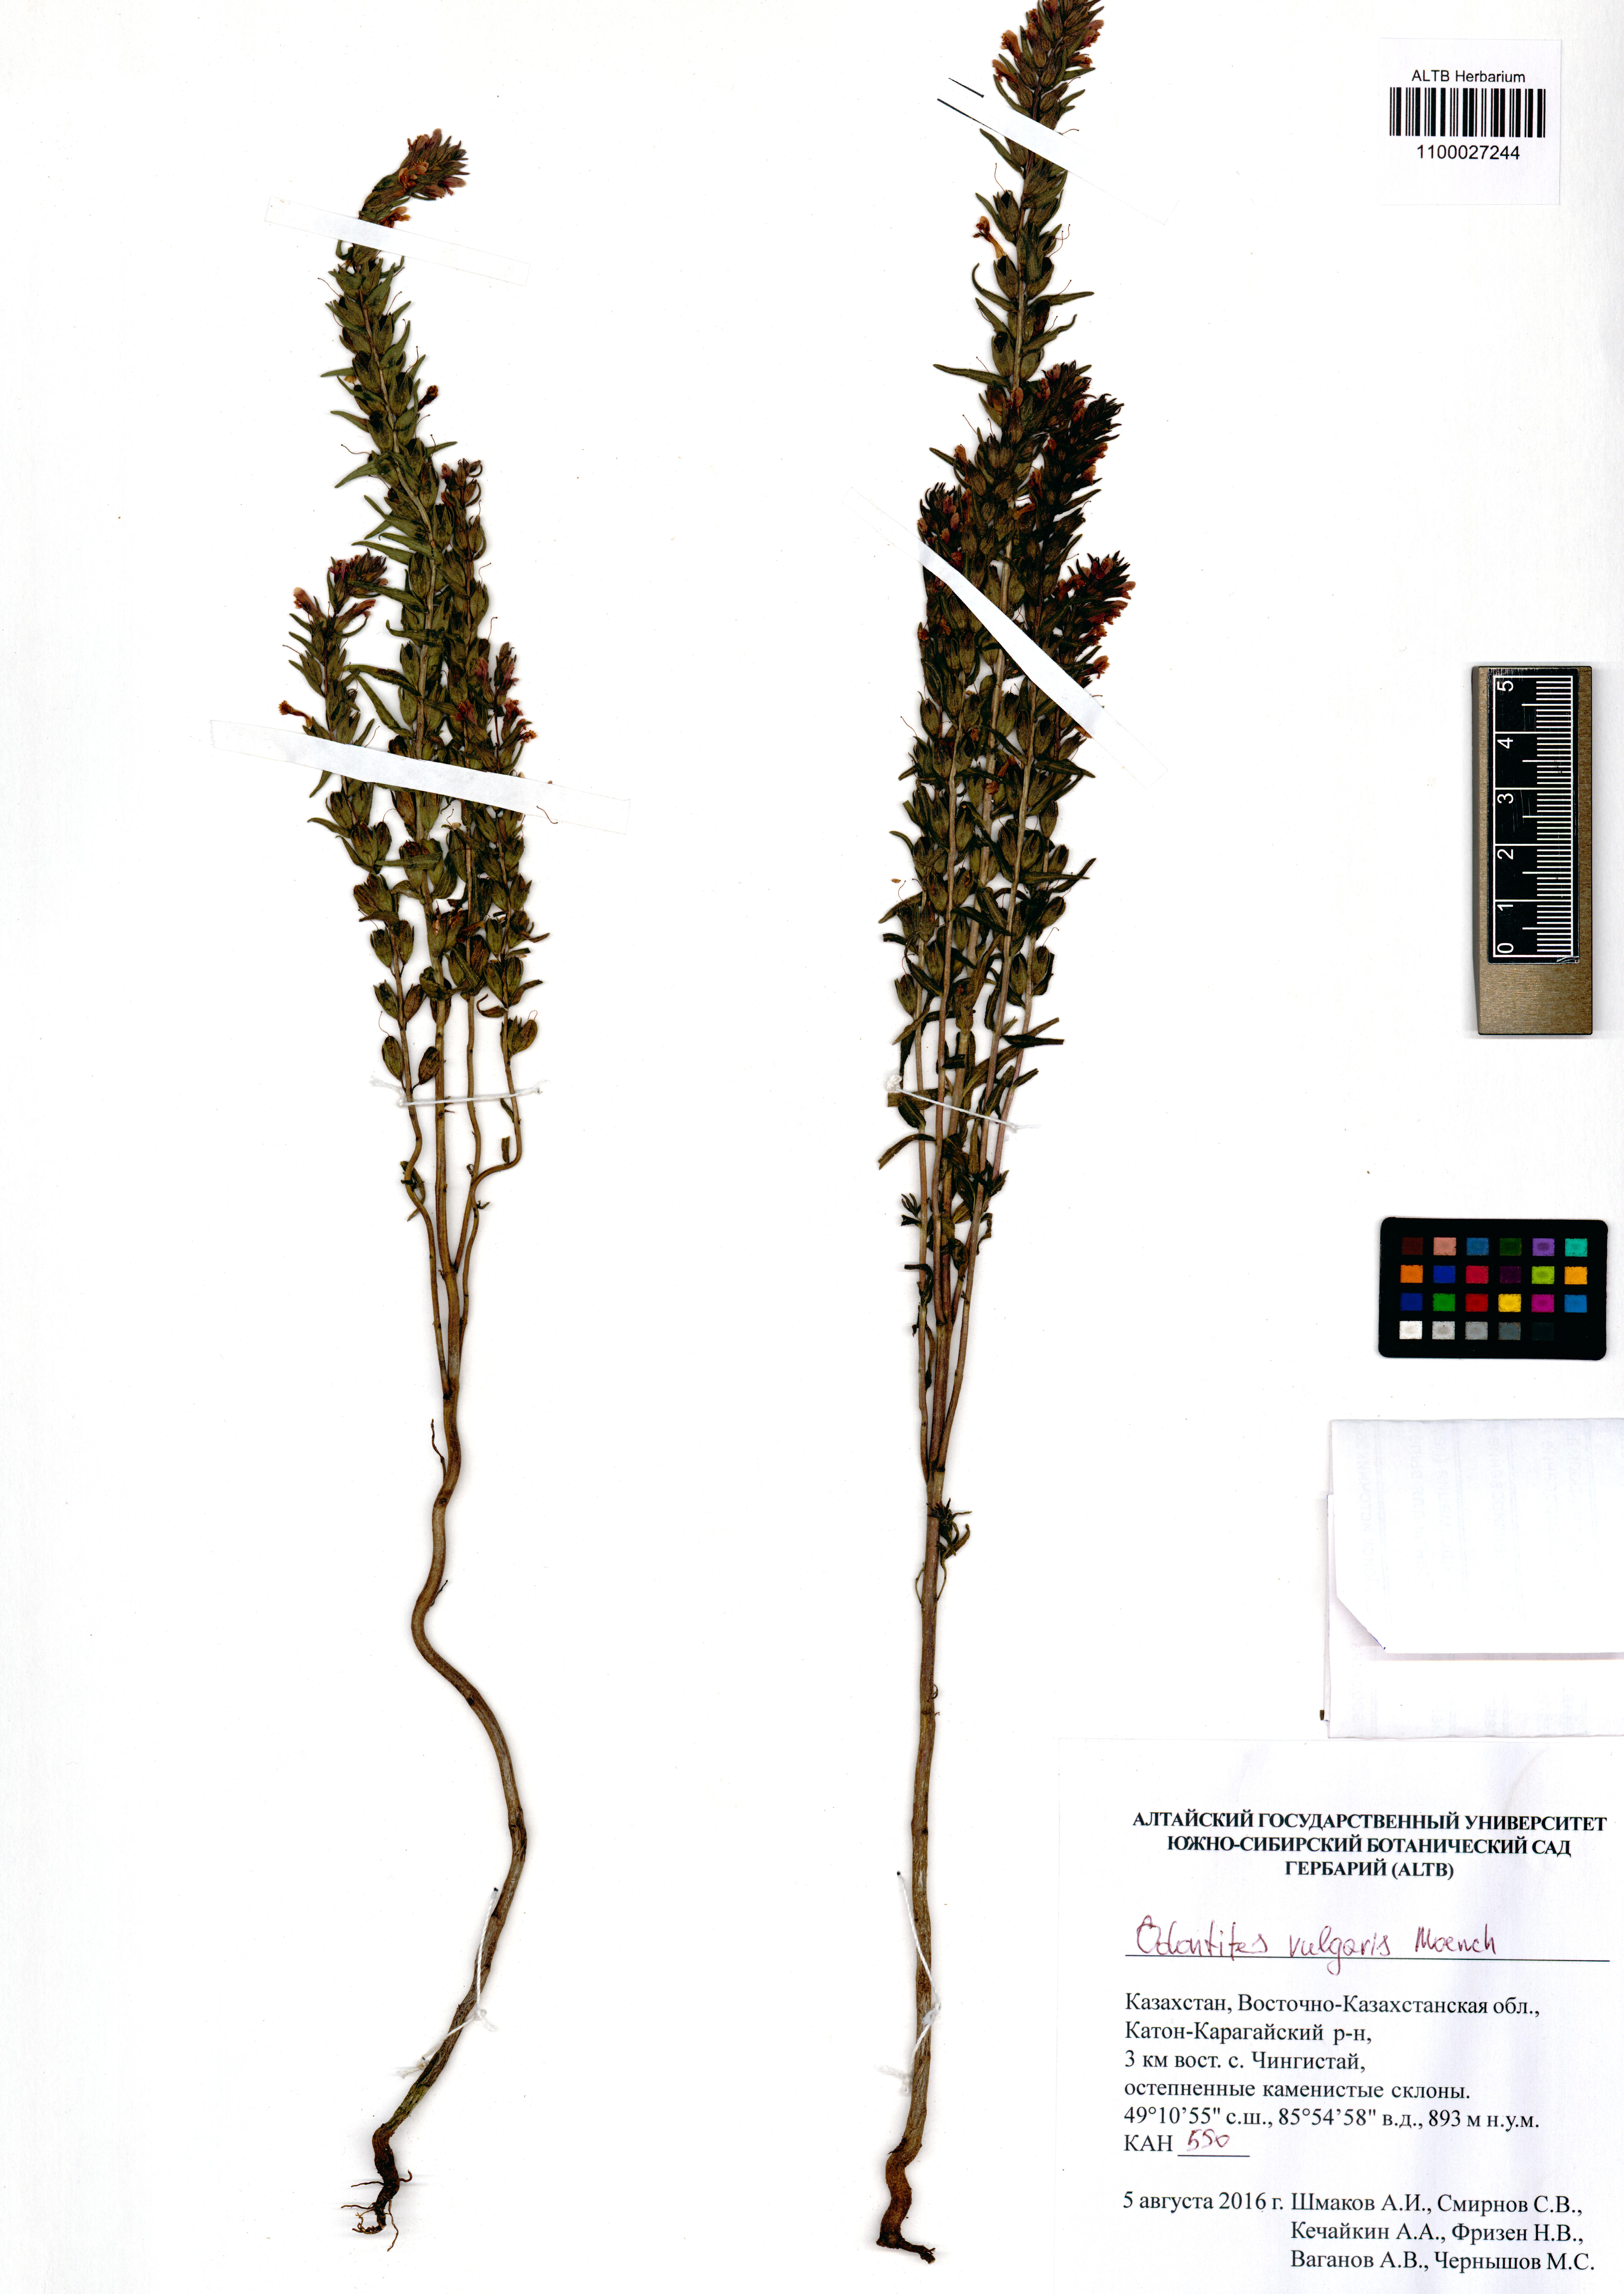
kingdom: Plantae
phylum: Tracheophyta
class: Magnoliopsida
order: Lamiales
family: Orobanchaceae
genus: Odontites
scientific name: Odontites vulgaris
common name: Broomrape
